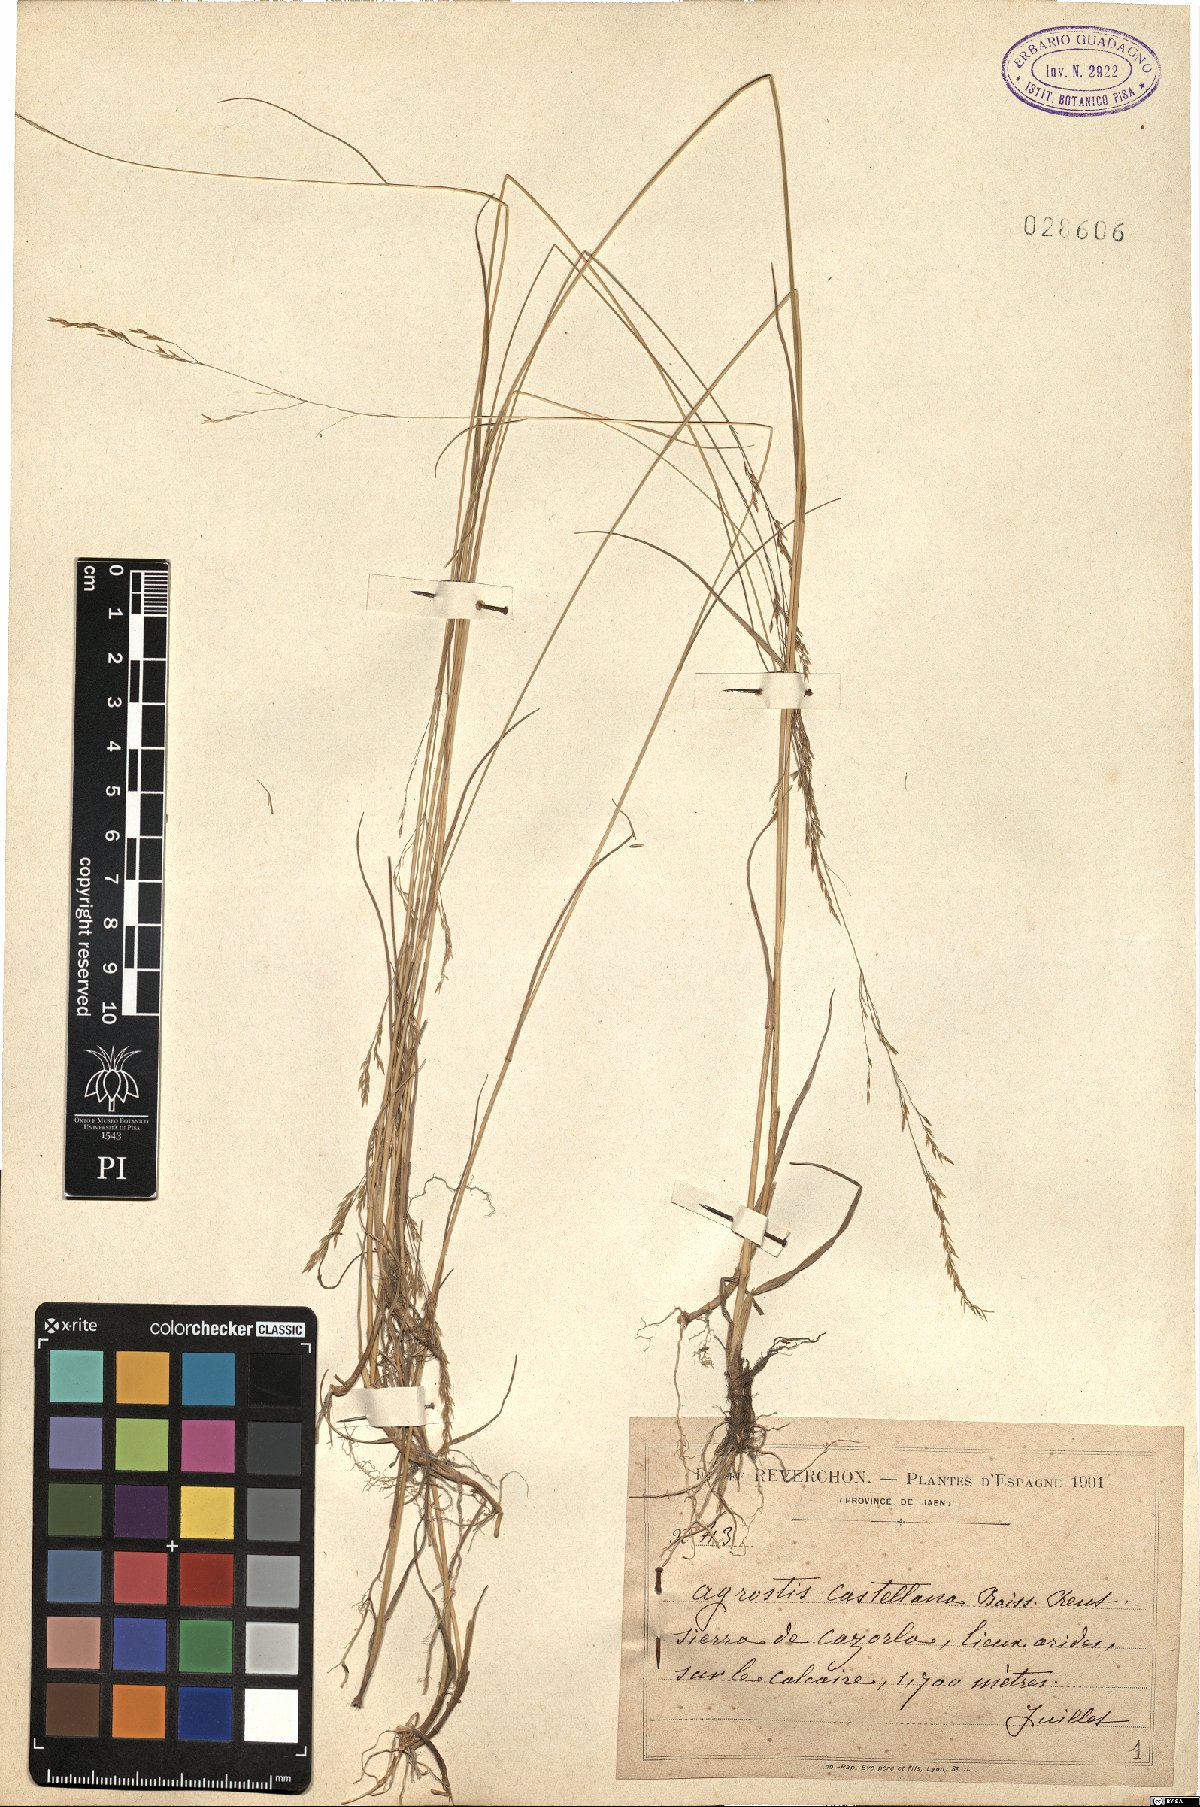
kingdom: Plantae
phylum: Tracheophyta
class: Liliopsida
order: Poales
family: Poaceae
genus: Agrostis
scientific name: Agrostis castellana
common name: Highland bent
